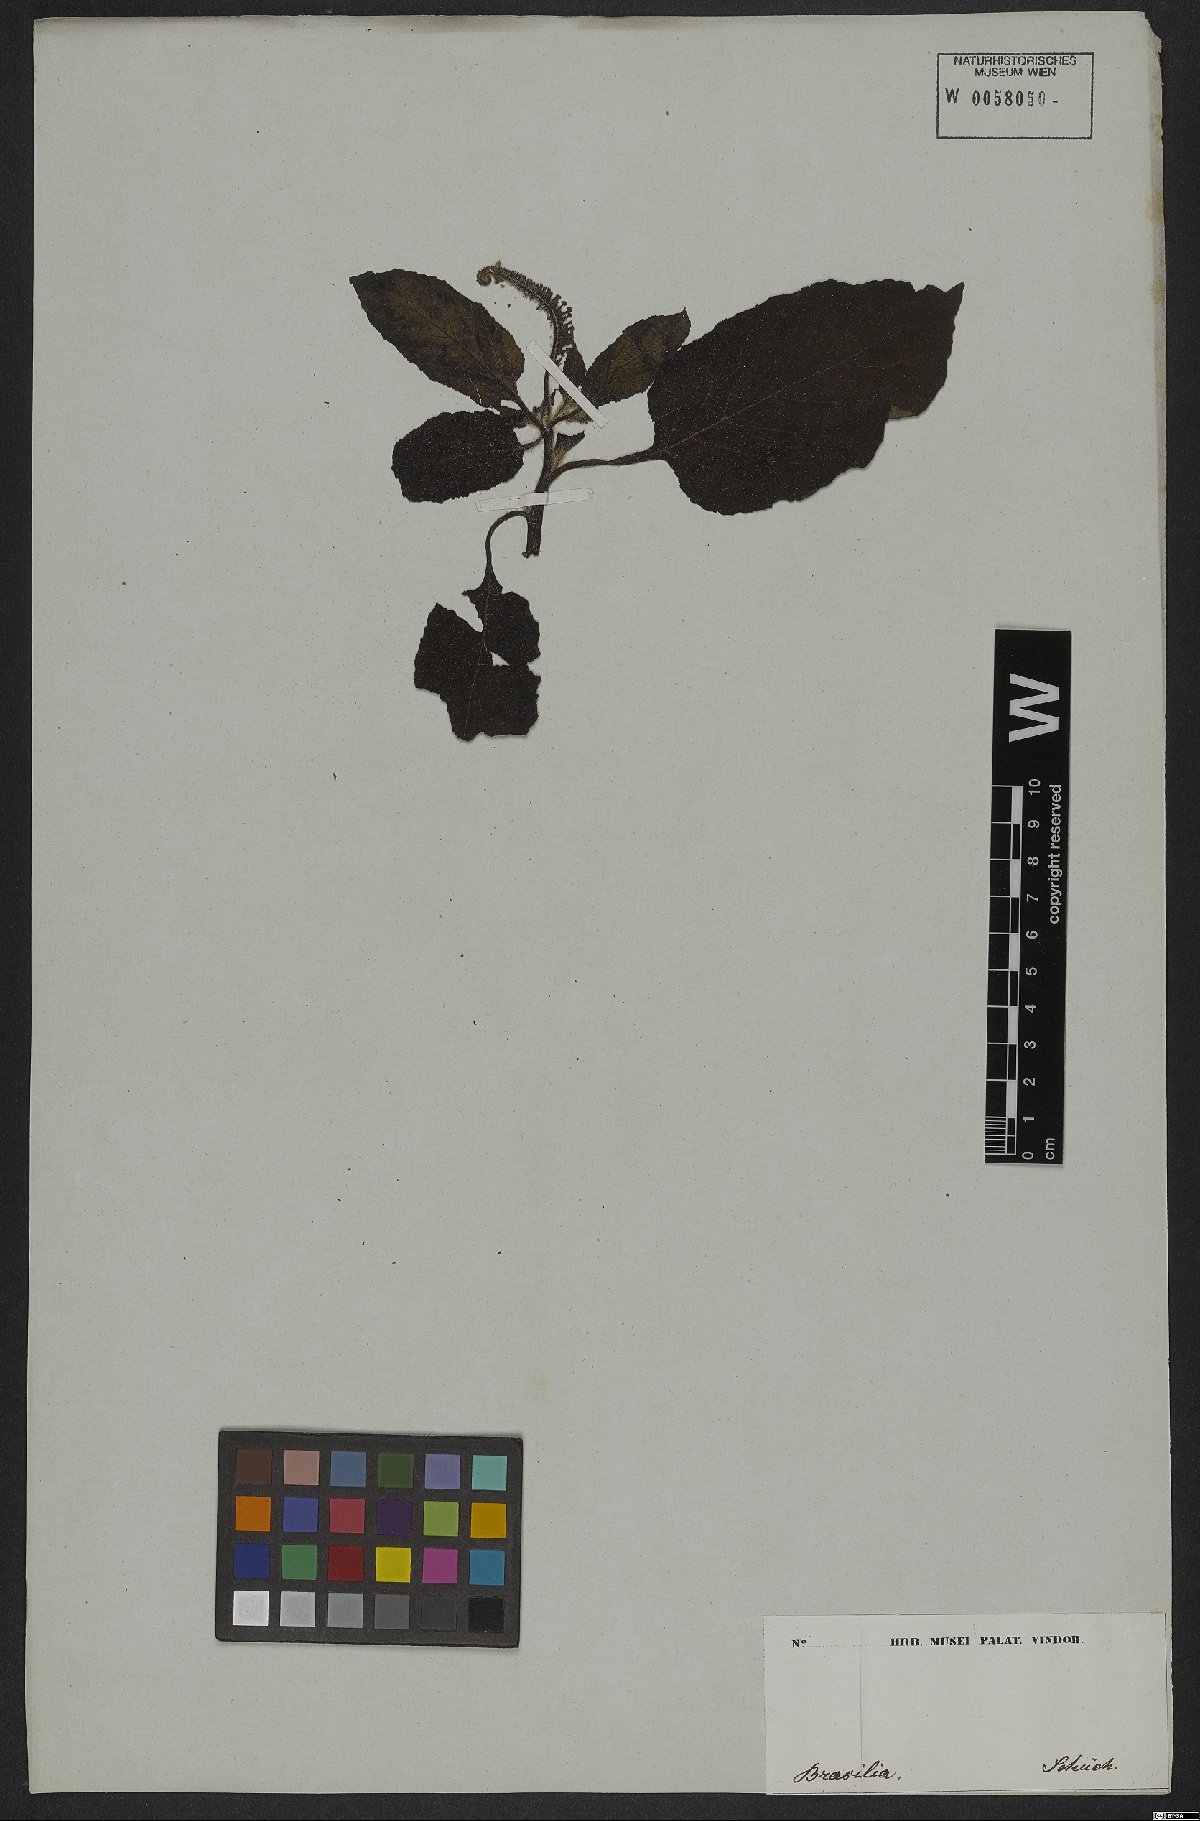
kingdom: Plantae
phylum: Tracheophyta
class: Magnoliopsida
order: Boraginales
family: Heliotropiaceae
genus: Heliotropium
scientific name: Heliotropium indicum
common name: Indian heliotrope
